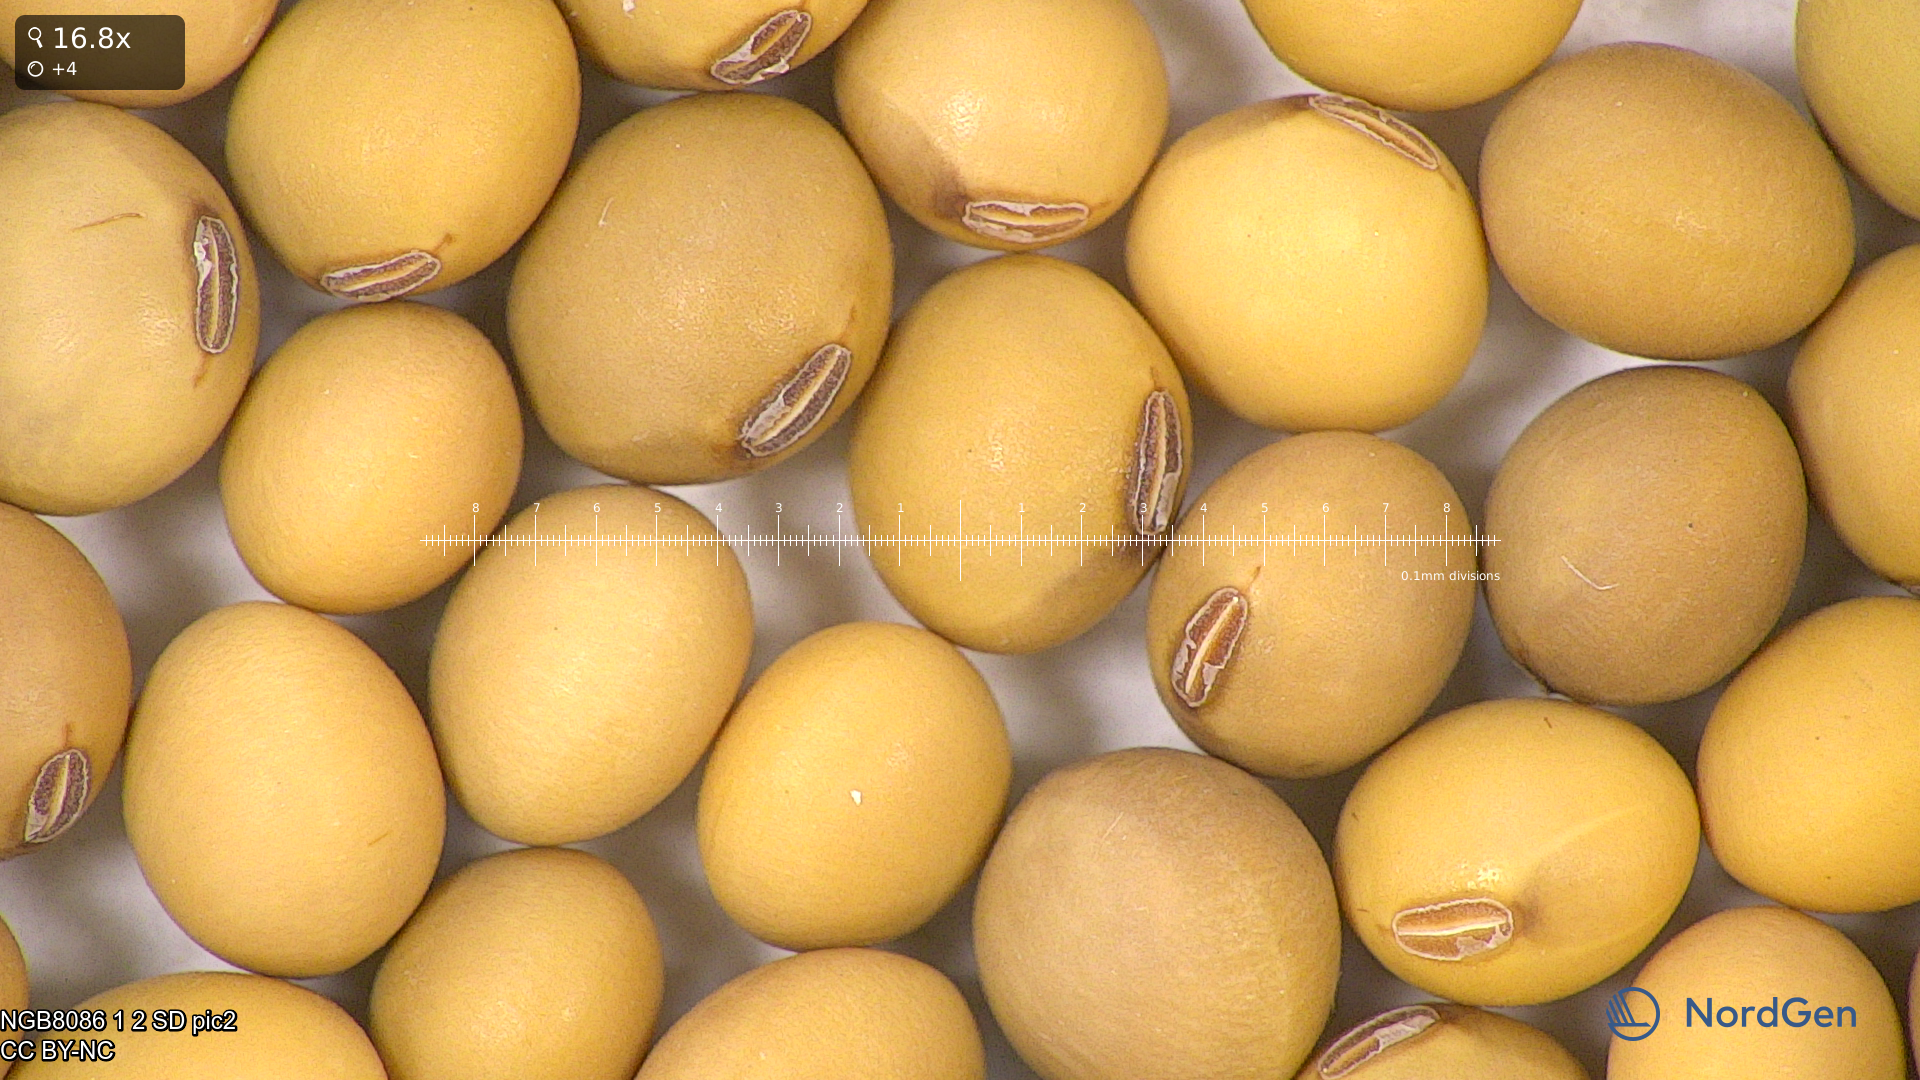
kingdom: Plantae
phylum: Tracheophyta
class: Magnoliopsida
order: Fabales
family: Fabaceae
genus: Glycine
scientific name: Glycine max
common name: Soya-bean
